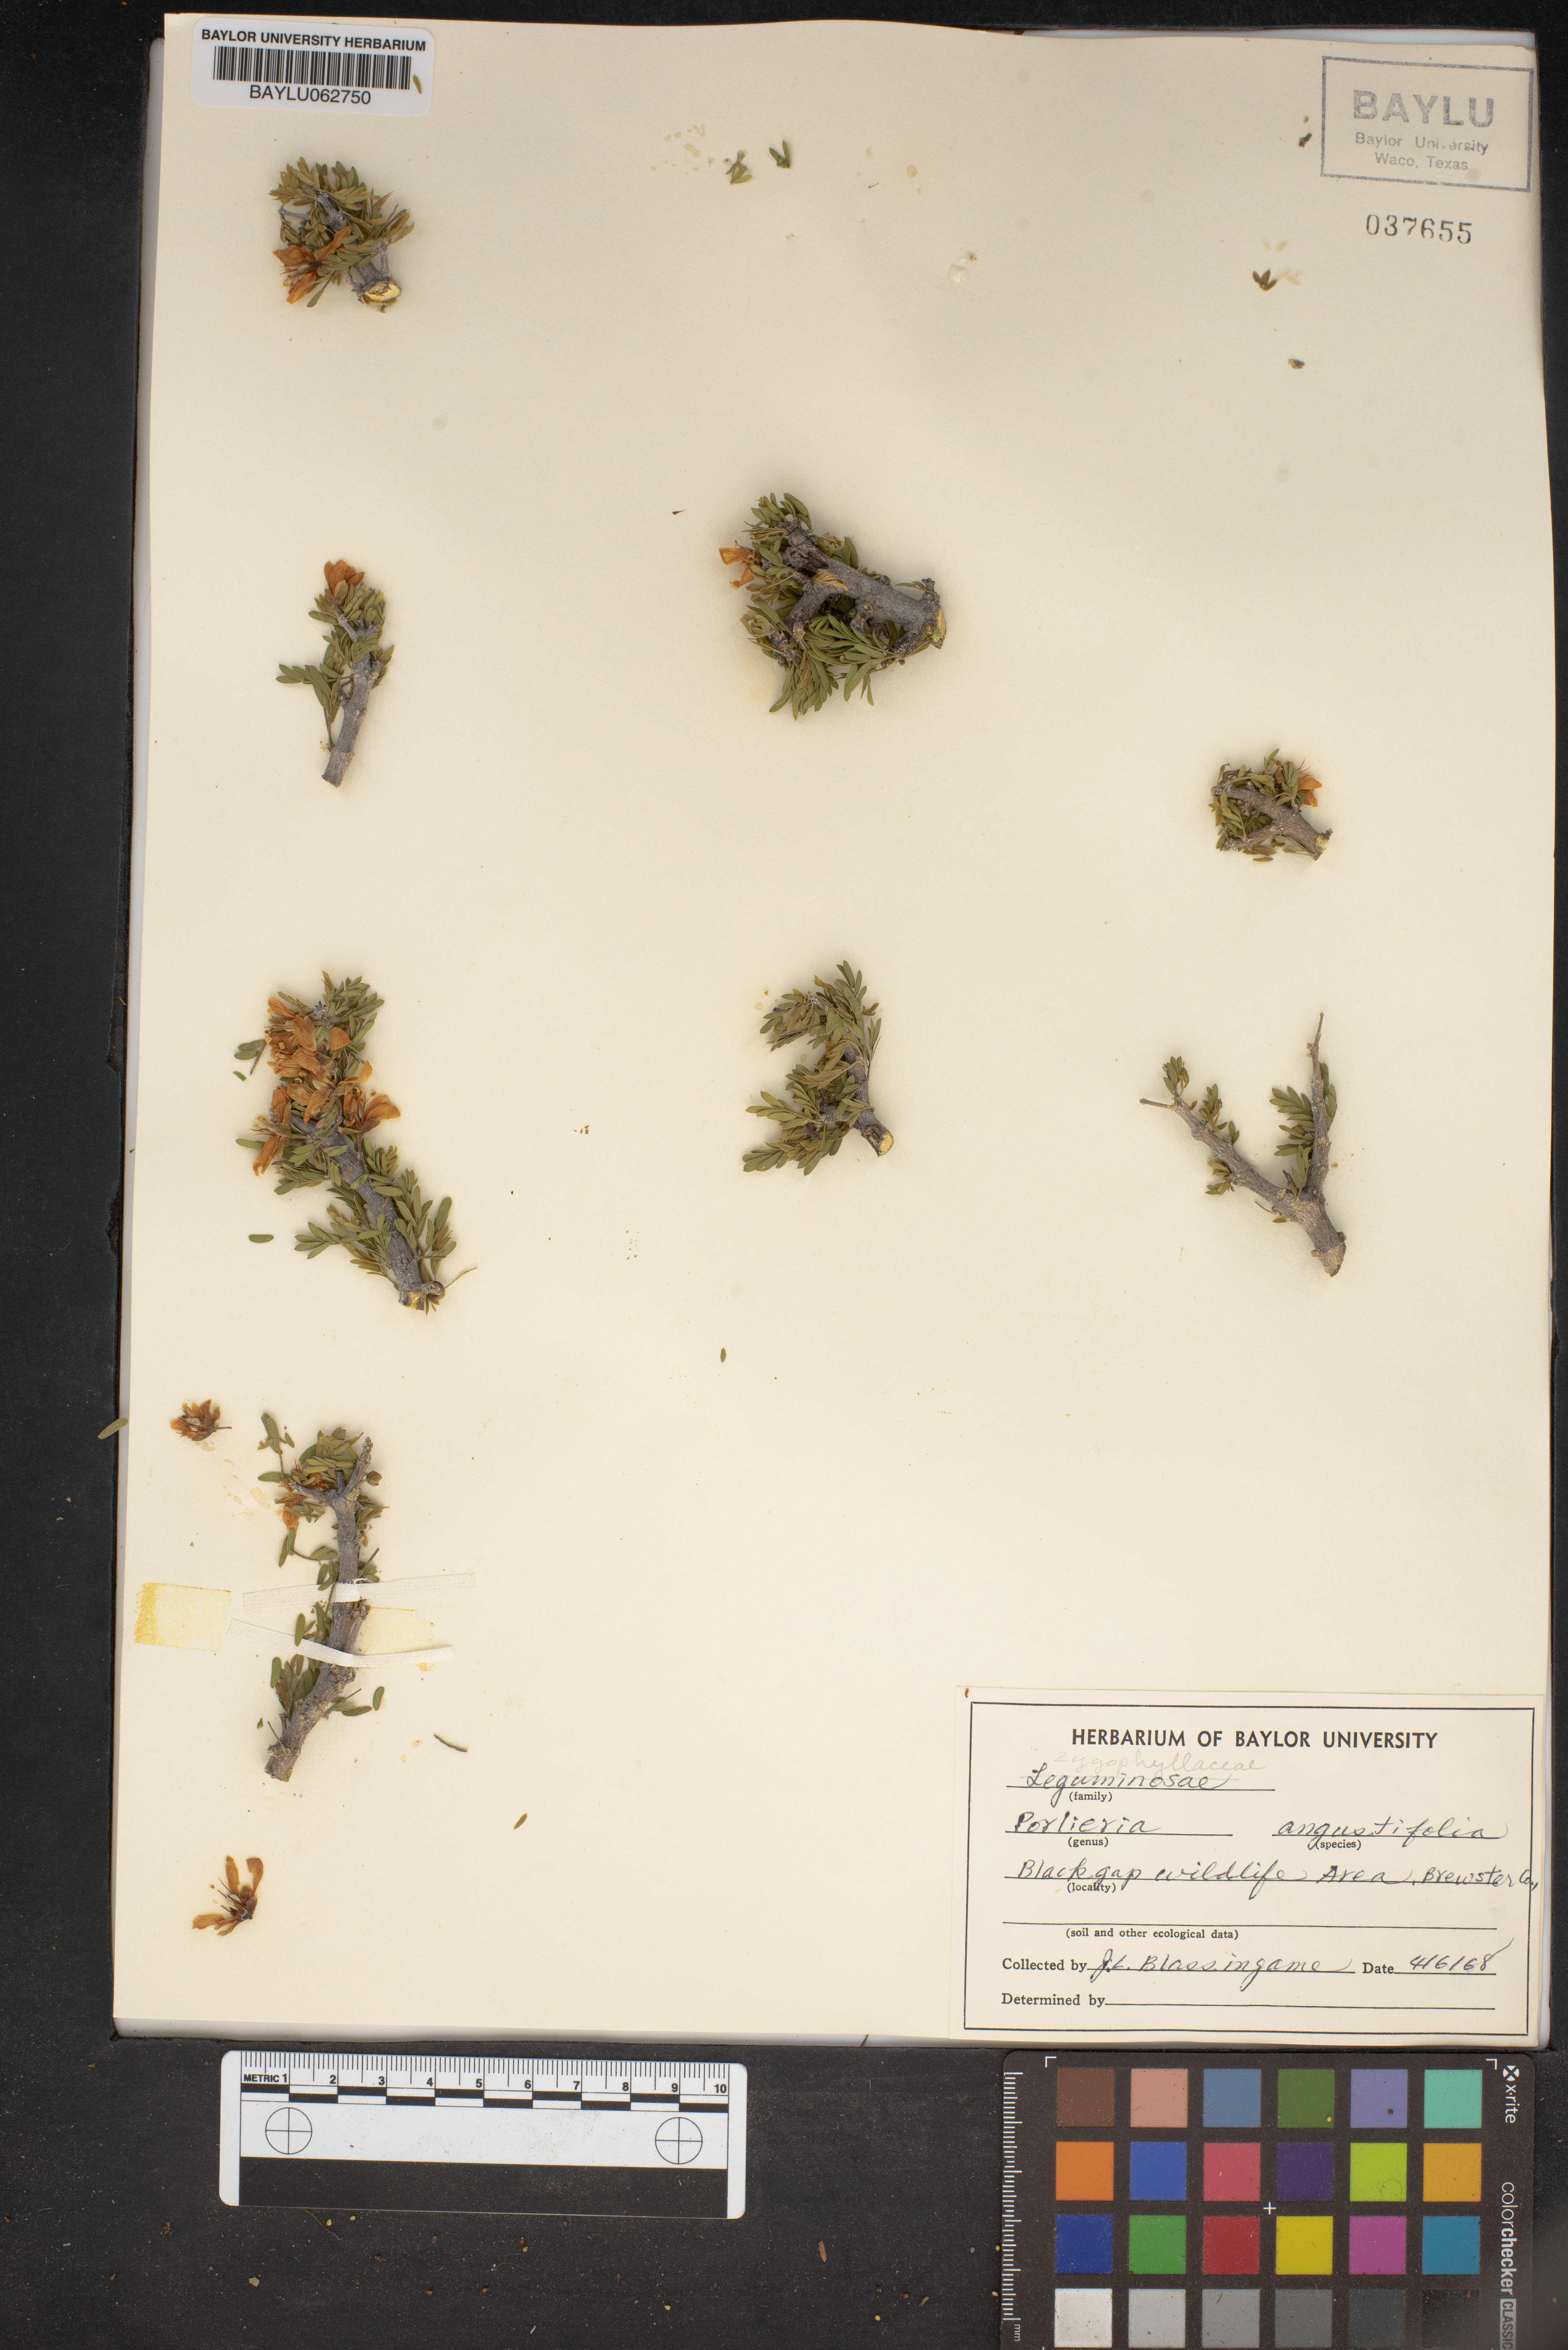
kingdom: Plantae
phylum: Tracheophyta
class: Magnoliopsida
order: Zygophyllales
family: Zygophyllaceae
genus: Porlieria
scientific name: Porlieria angustifolia
